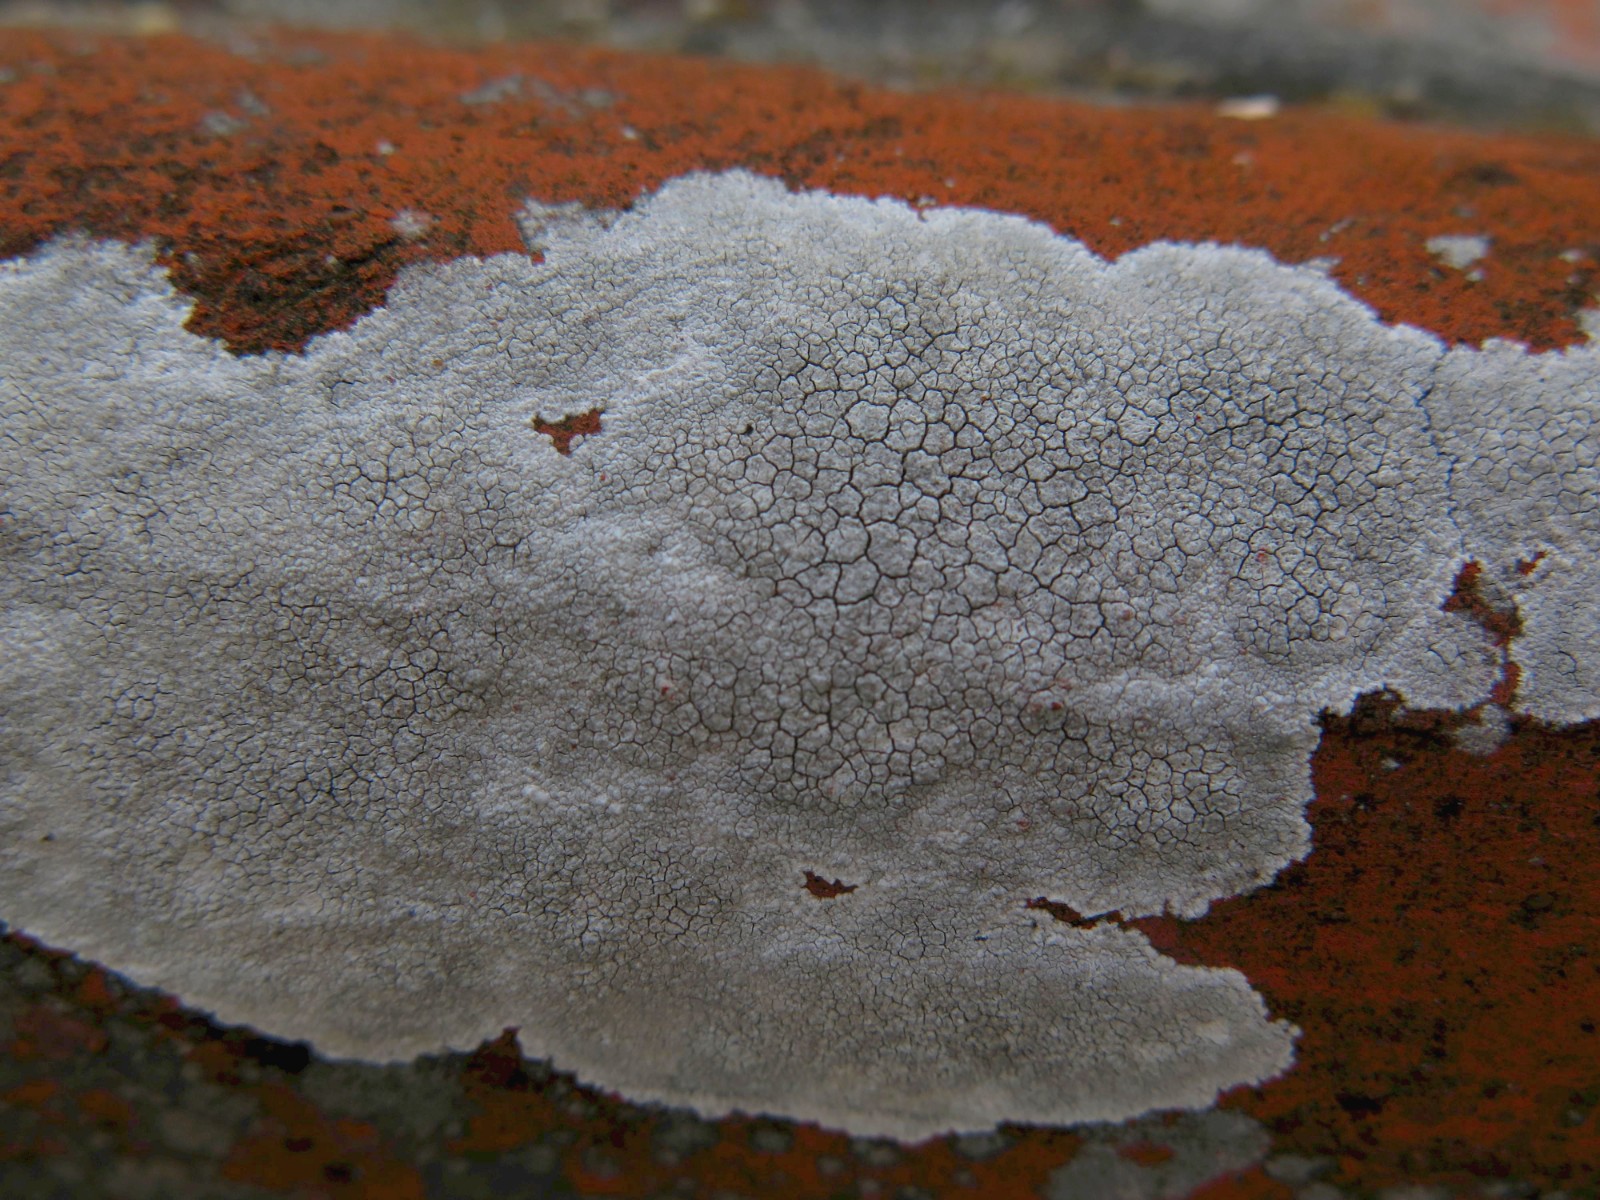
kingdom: Fungi
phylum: Ascomycota
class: Lecanoromycetes
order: Lecanorales
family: Lecanoraceae
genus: Glaucomaria
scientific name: Glaucomaria rupicola
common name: stengærde-kantskivelav
